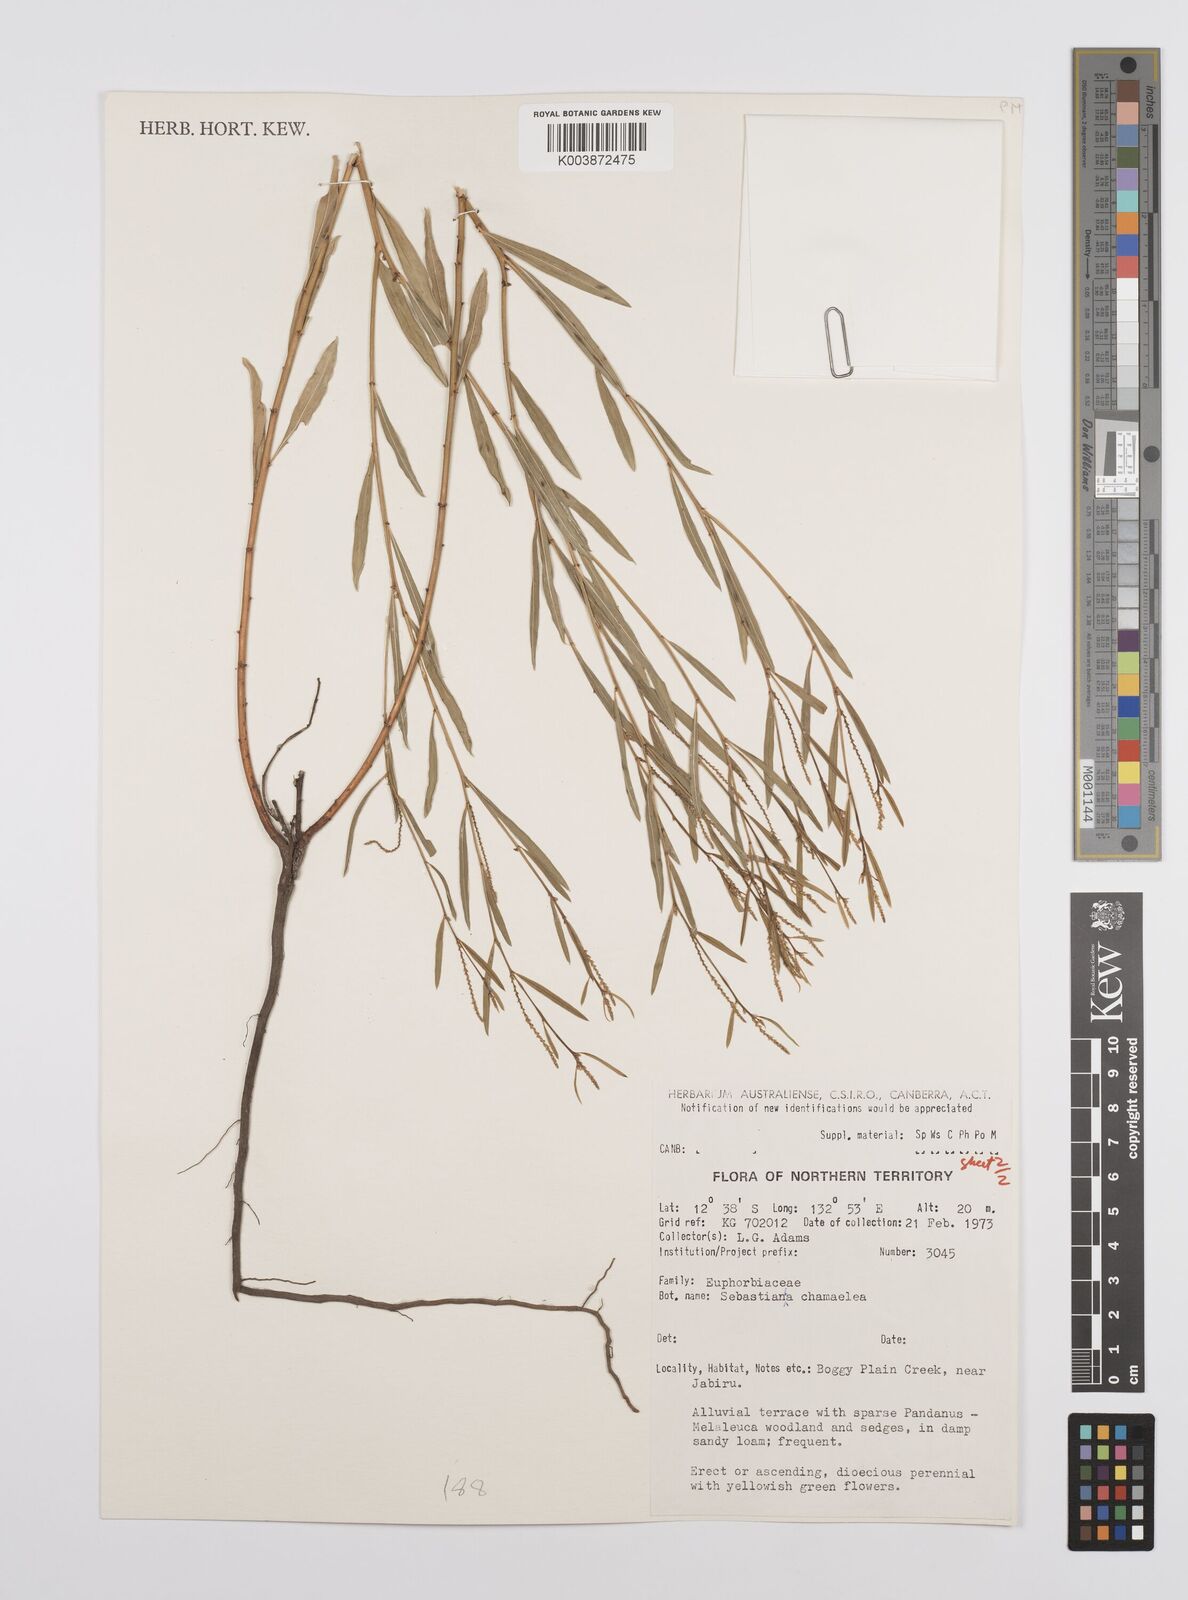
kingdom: Plantae
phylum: Tracheophyta
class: Magnoliopsida
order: Malpighiales
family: Euphorbiaceae
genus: Microstachys
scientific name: Microstachys chamaelea
